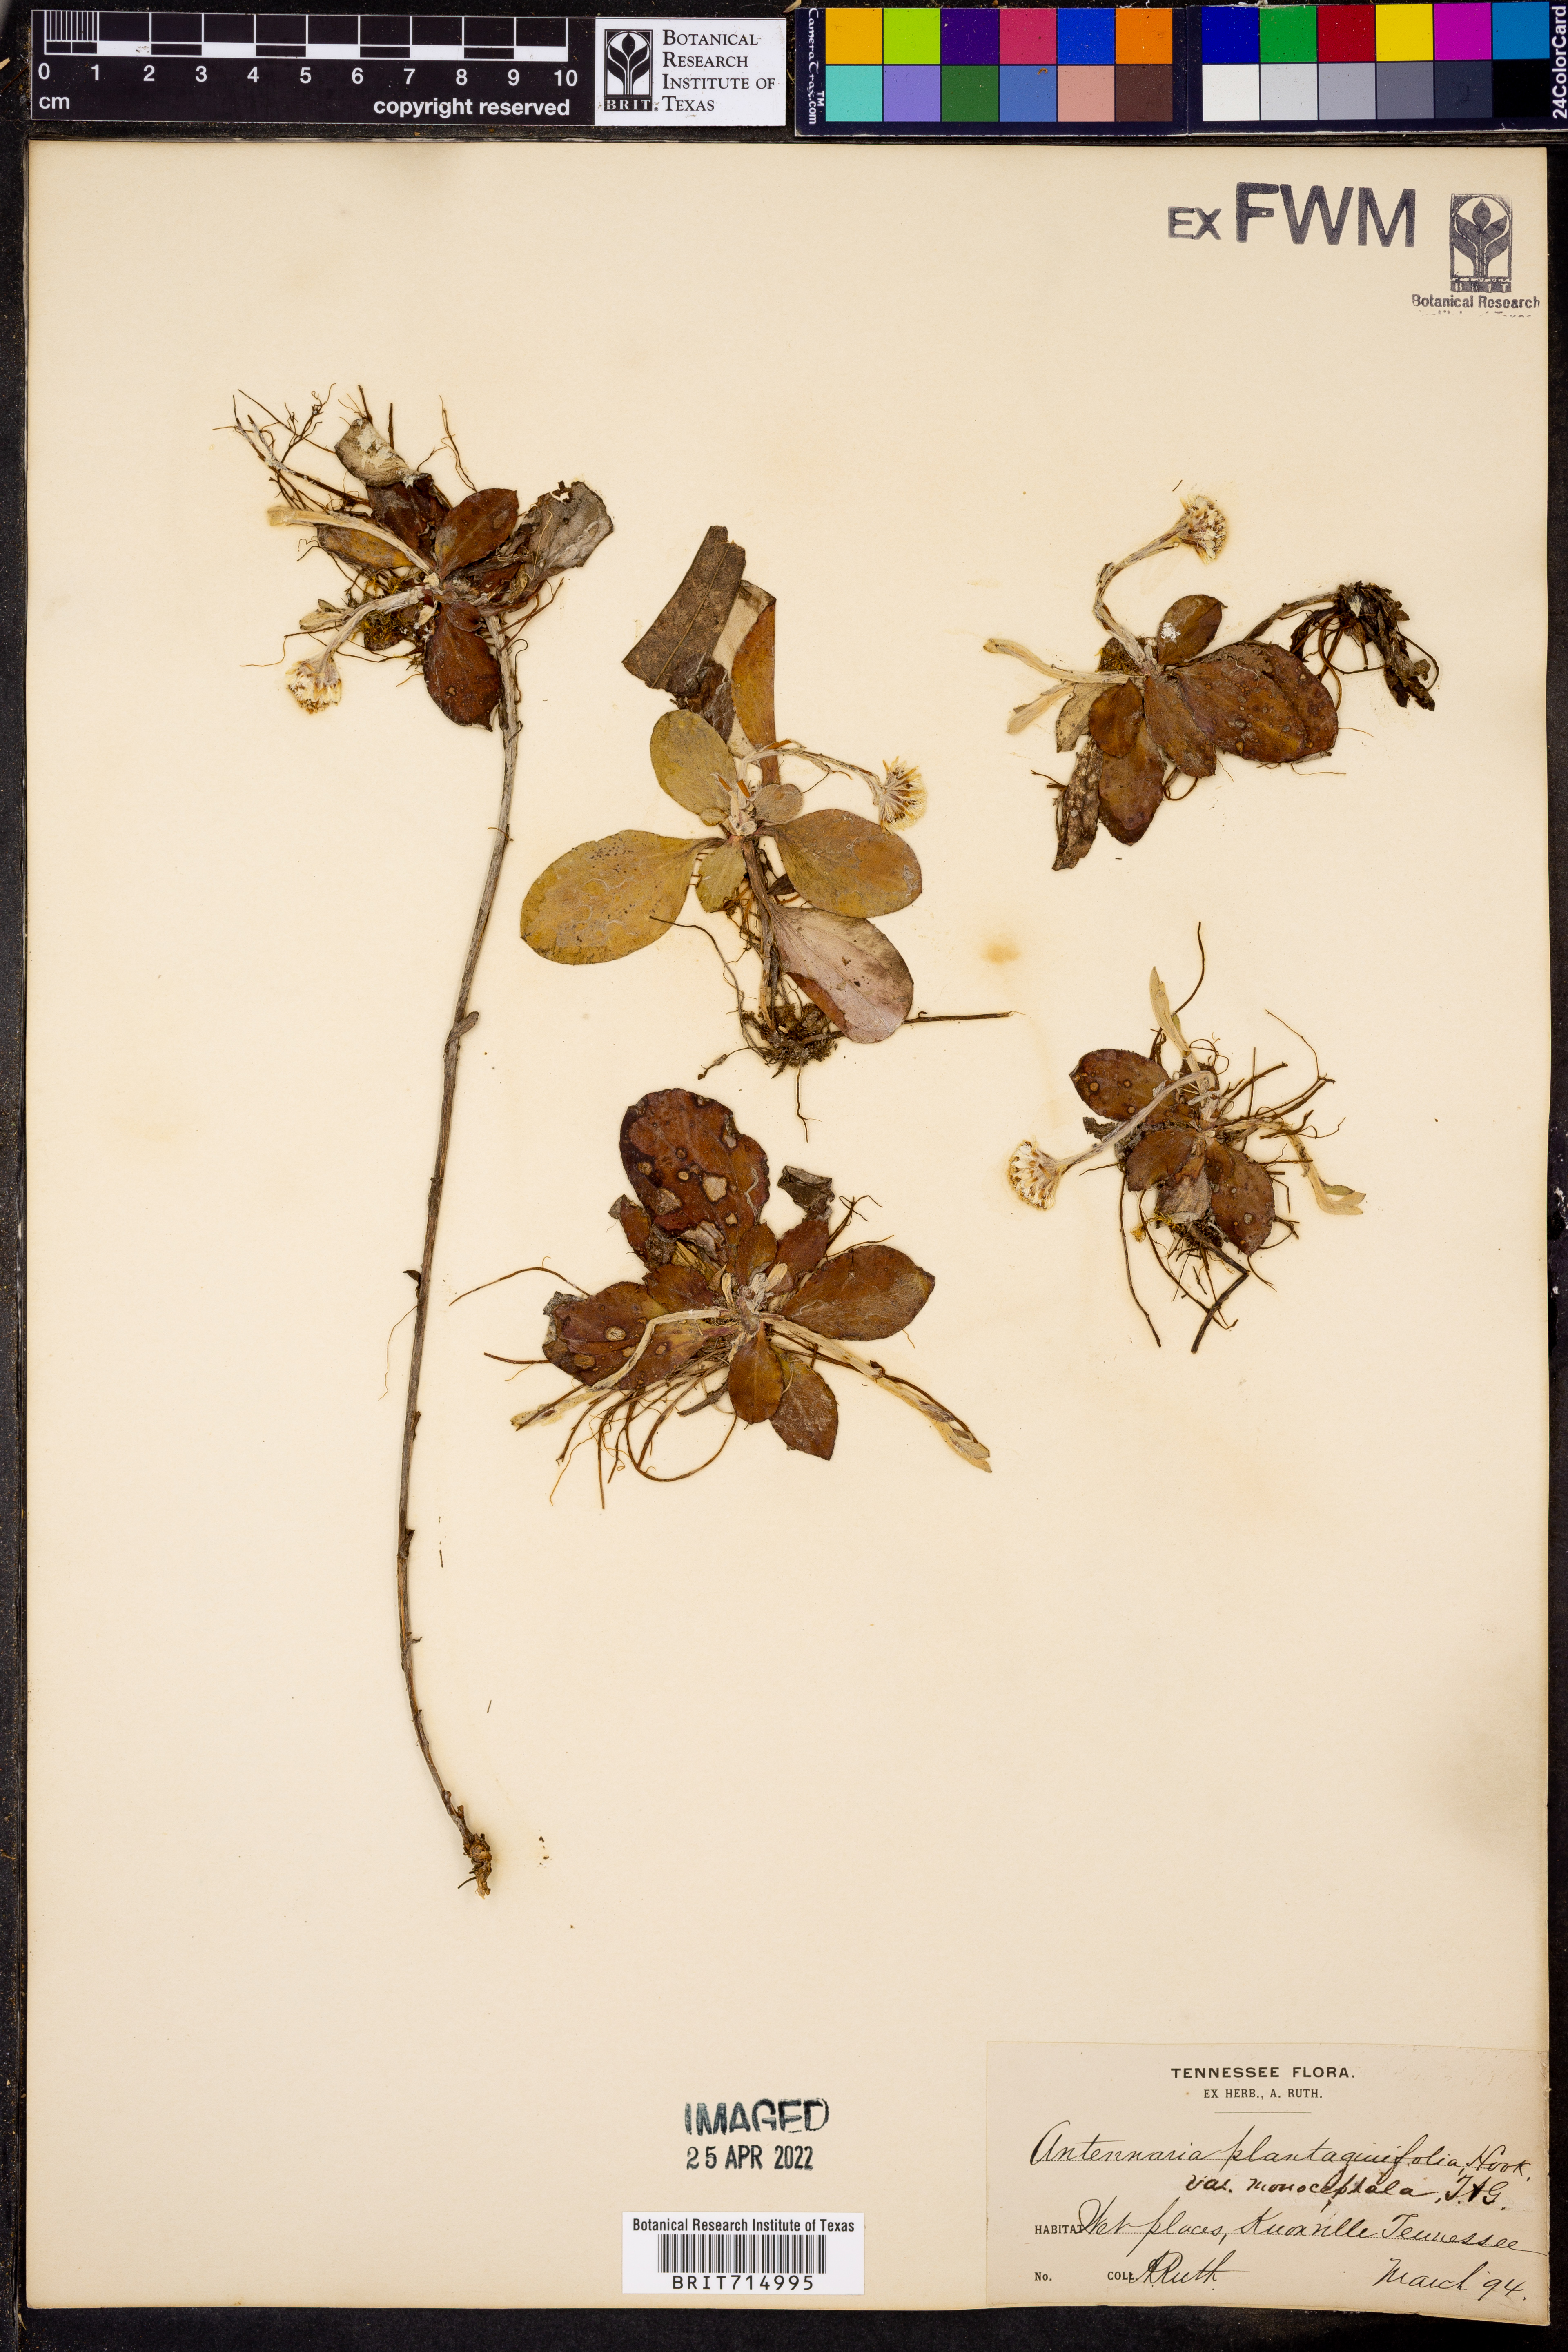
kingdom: Plantae
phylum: Tracheophyta
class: Magnoliopsida
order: Asterales
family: Asteraceae
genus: Antennaria
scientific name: Antennaria solitaria
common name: Single-head pussytoes
